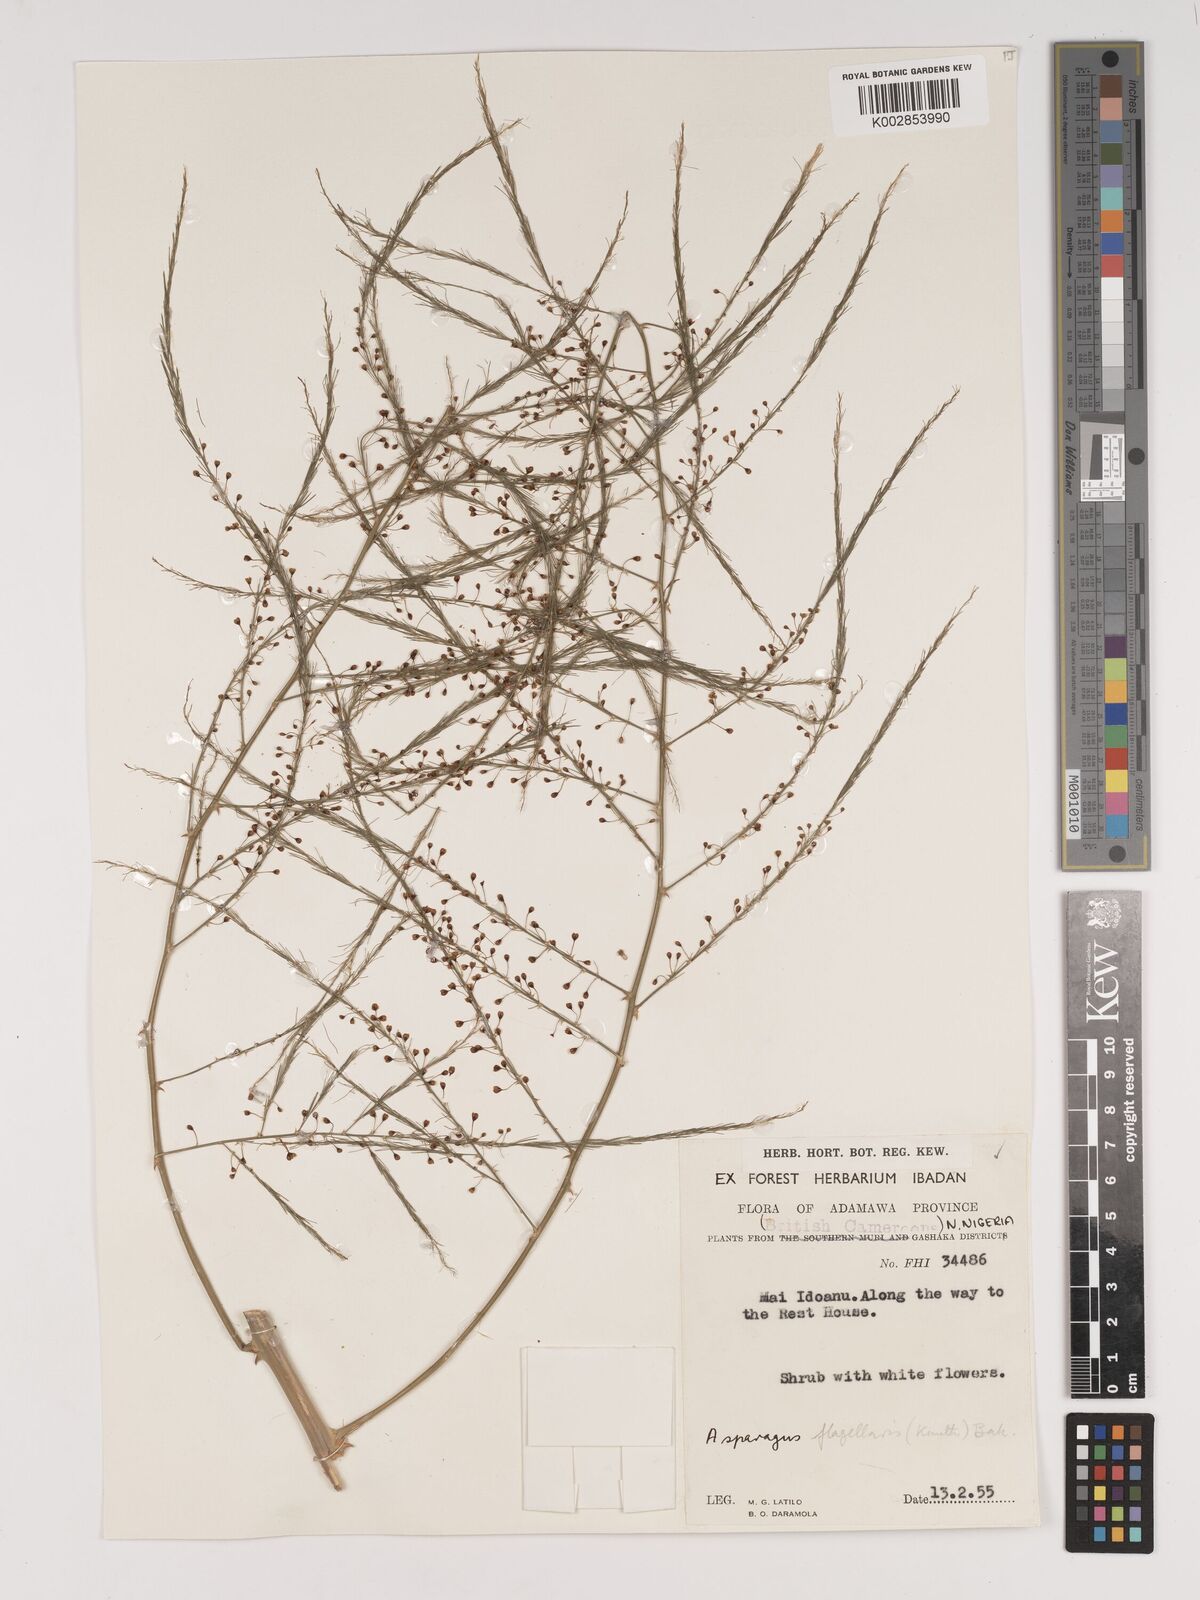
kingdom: Plantae
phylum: Tracheophyta
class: Liliopsida
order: Asparagales
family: Asparagaceae
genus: Asparagus
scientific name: Asparagus flagellaris
